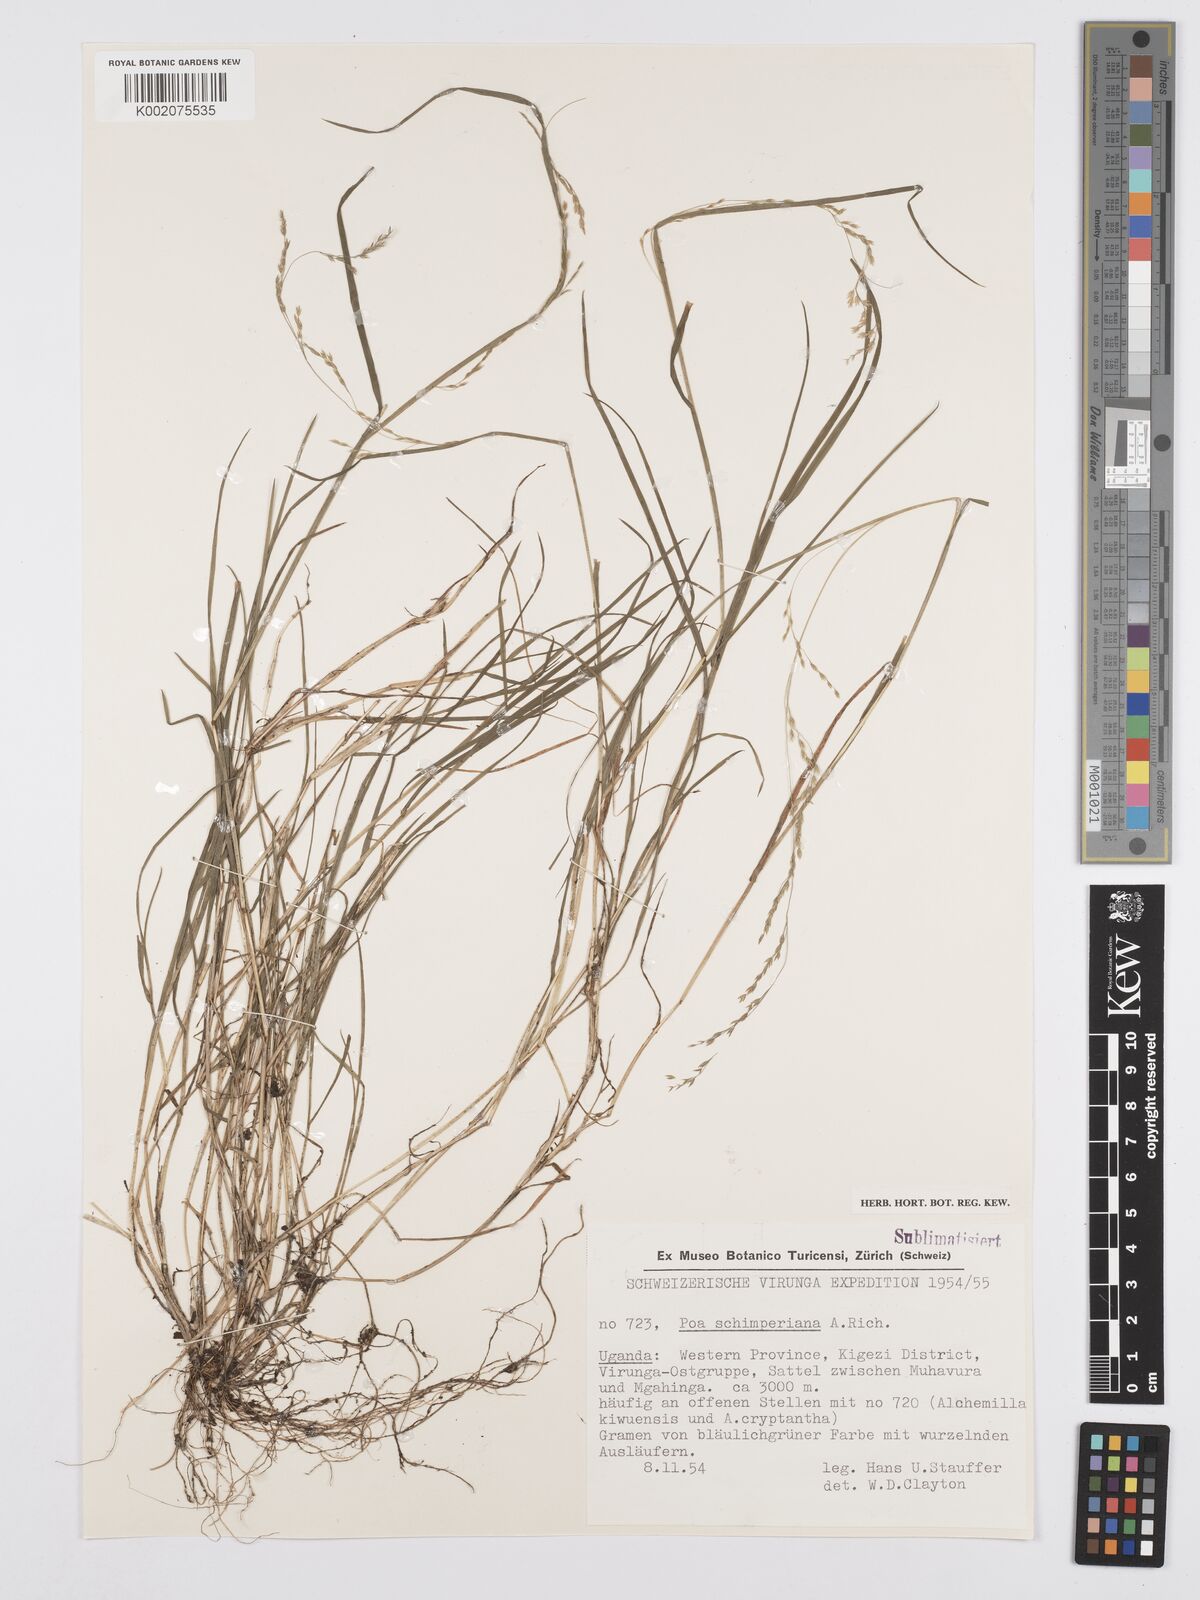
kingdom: Plantae
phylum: Tracheophyta
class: Liliopsida
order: Poales
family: Poaceae
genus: Poa
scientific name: Poa schimperiana
